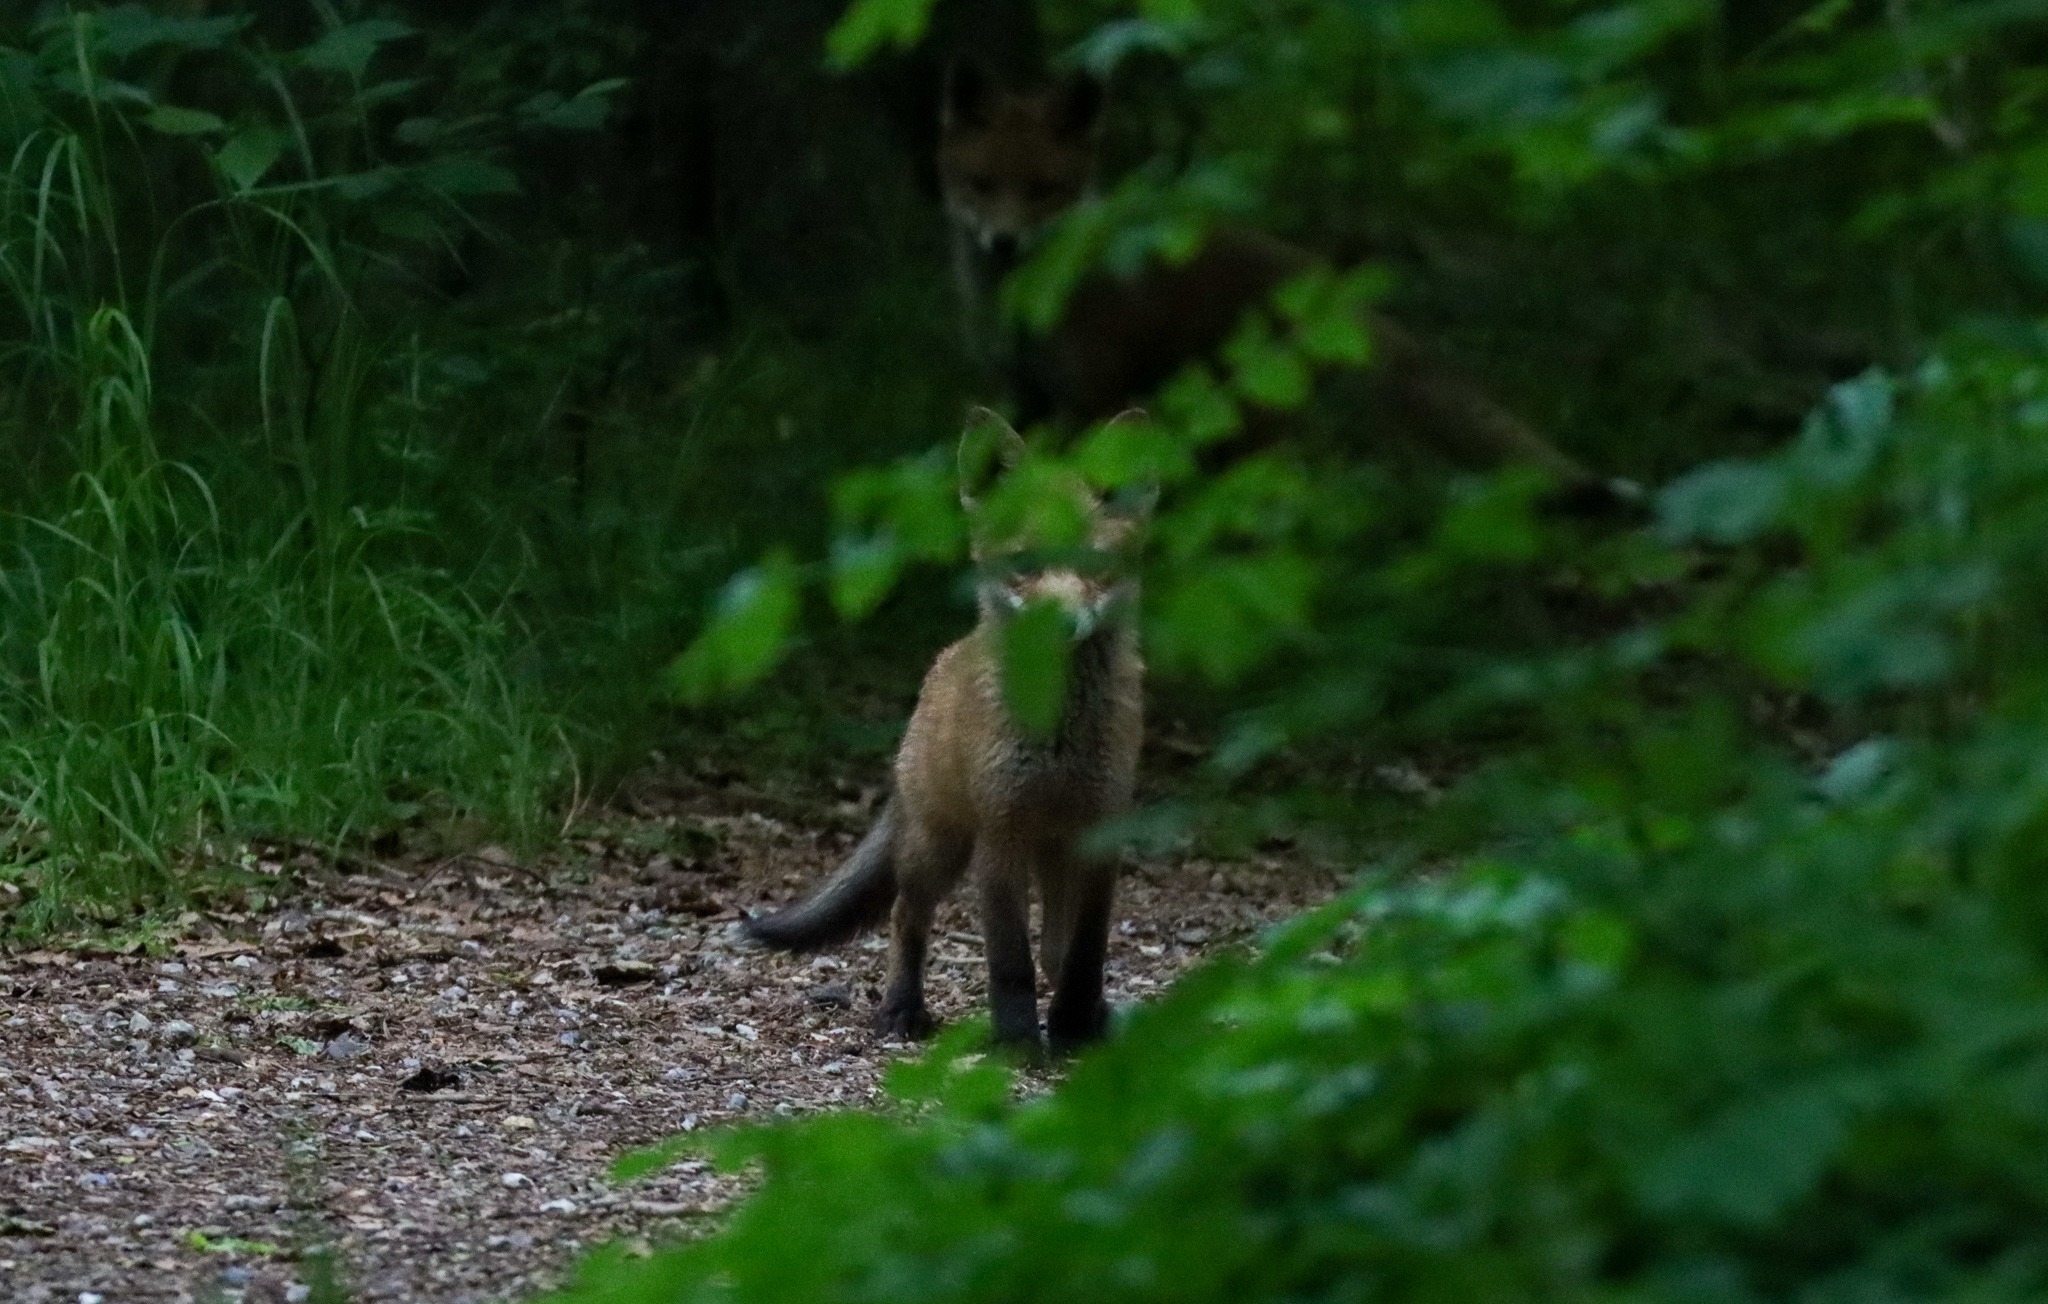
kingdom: Animalia
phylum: Chordata
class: Mammalia
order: Carnivora
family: Canidae
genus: Vulpes
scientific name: Vulpes vulpes
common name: Ræv
